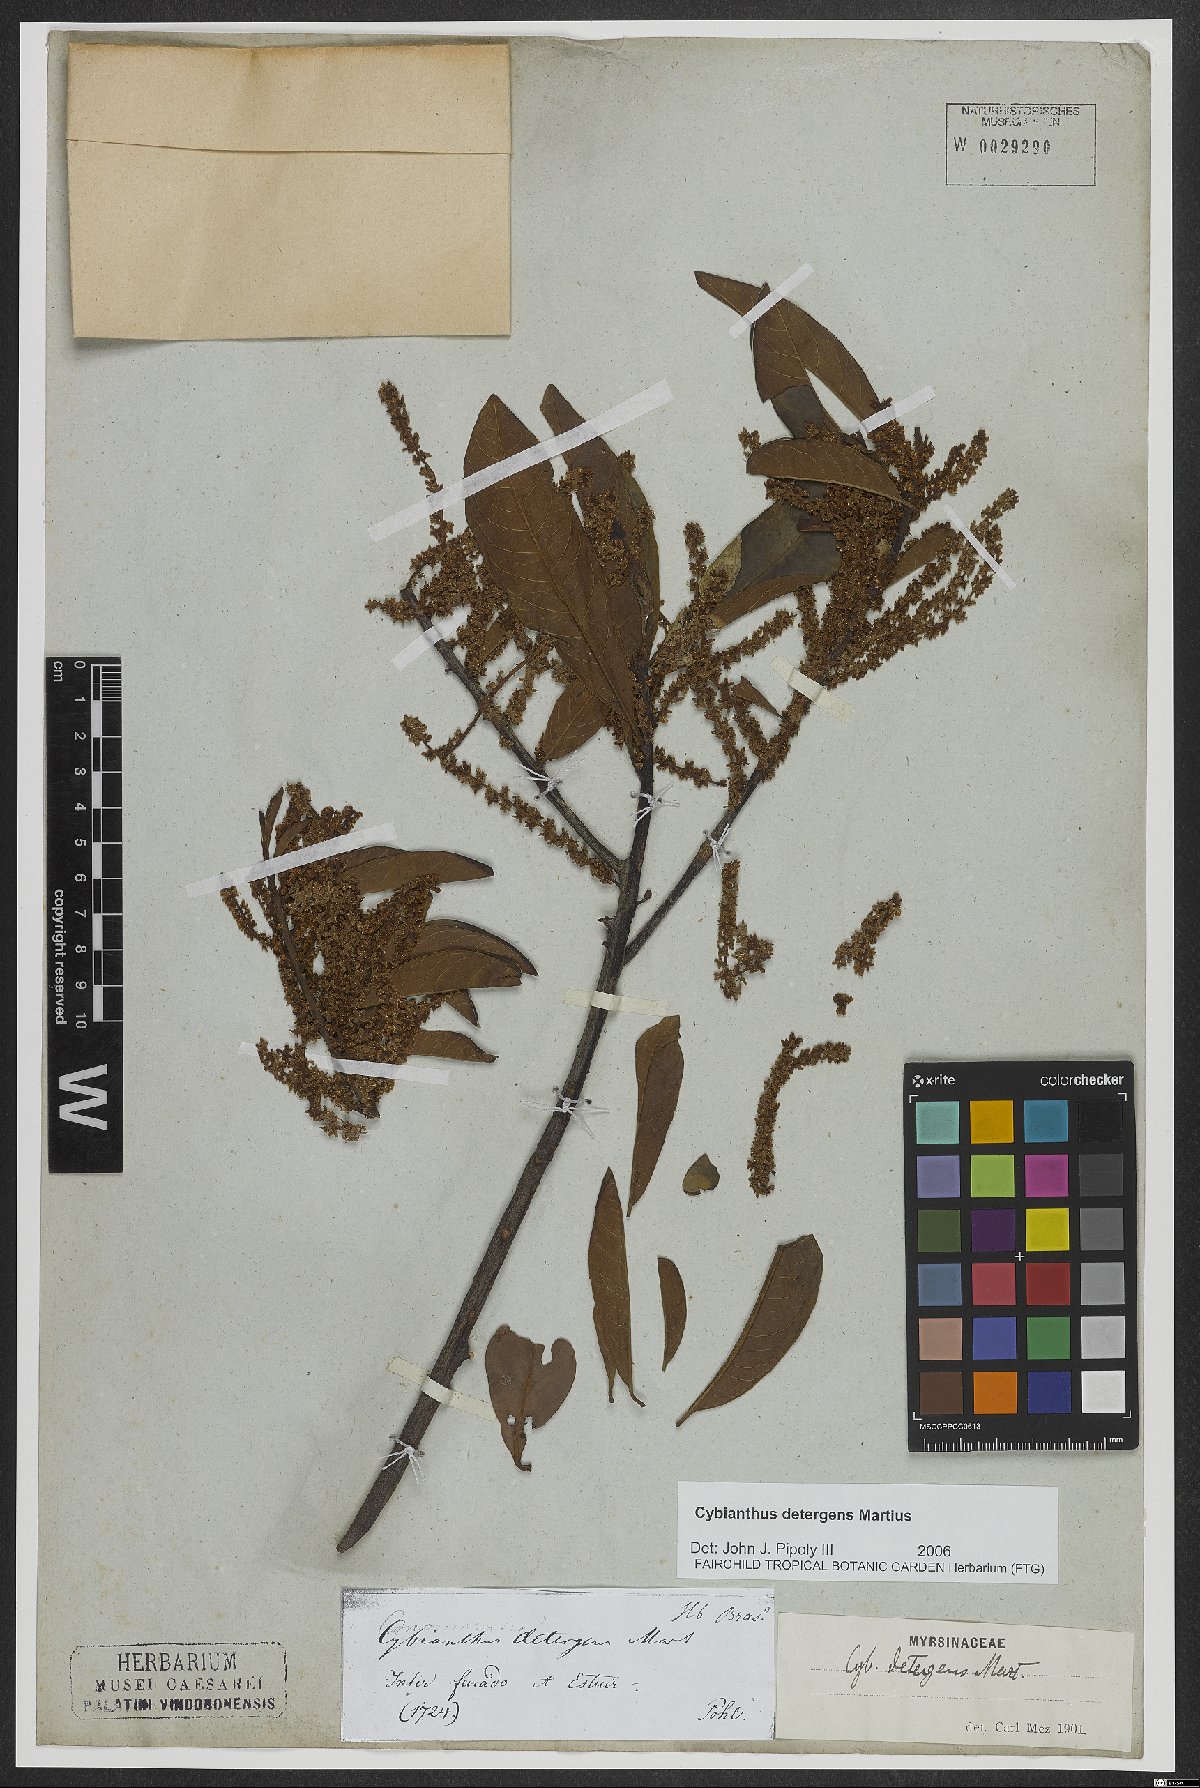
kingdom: Plantae
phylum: Tracheophyta
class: Magnoliopsida
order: Ericales
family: Primulaceae
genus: Cybianthus
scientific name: Cybianthus detergens
